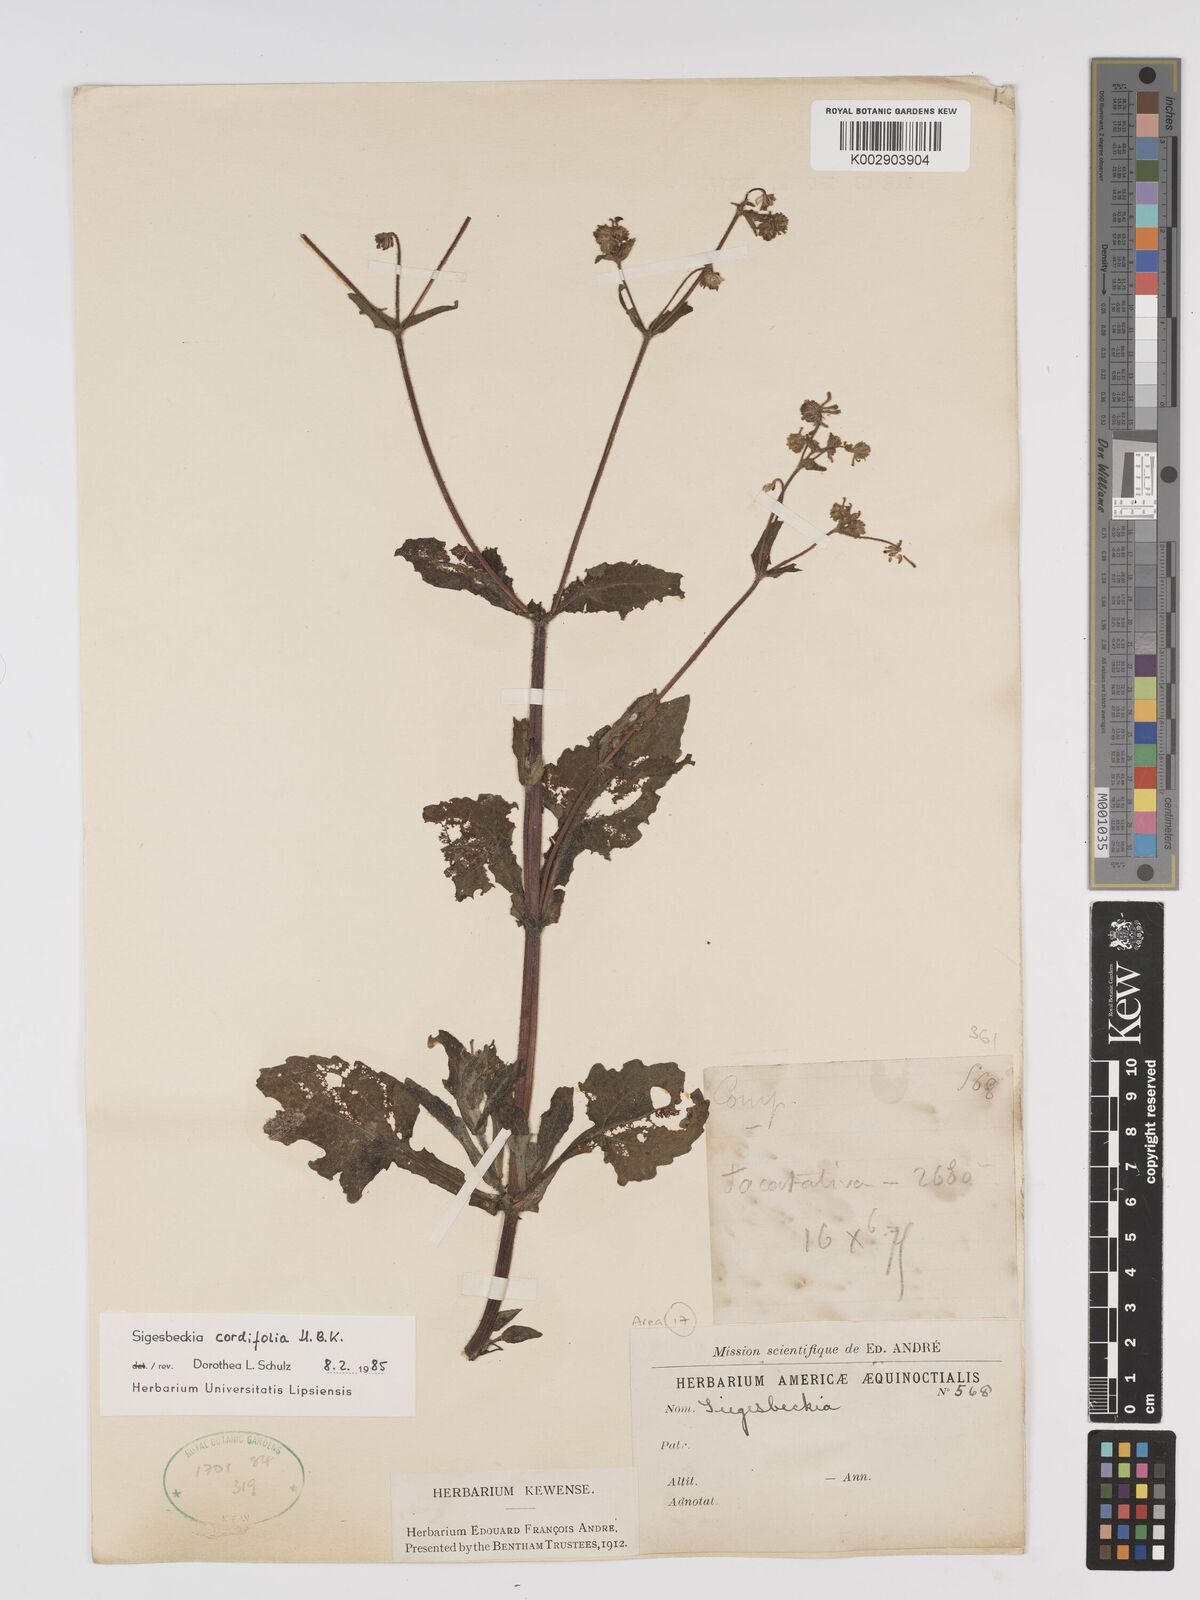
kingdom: Plantae
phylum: Tracheophyta
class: Magnoliopsida
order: Asterales
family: Asteraceae
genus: Sigesbeckia
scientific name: Sigesbeckia jorullensis
